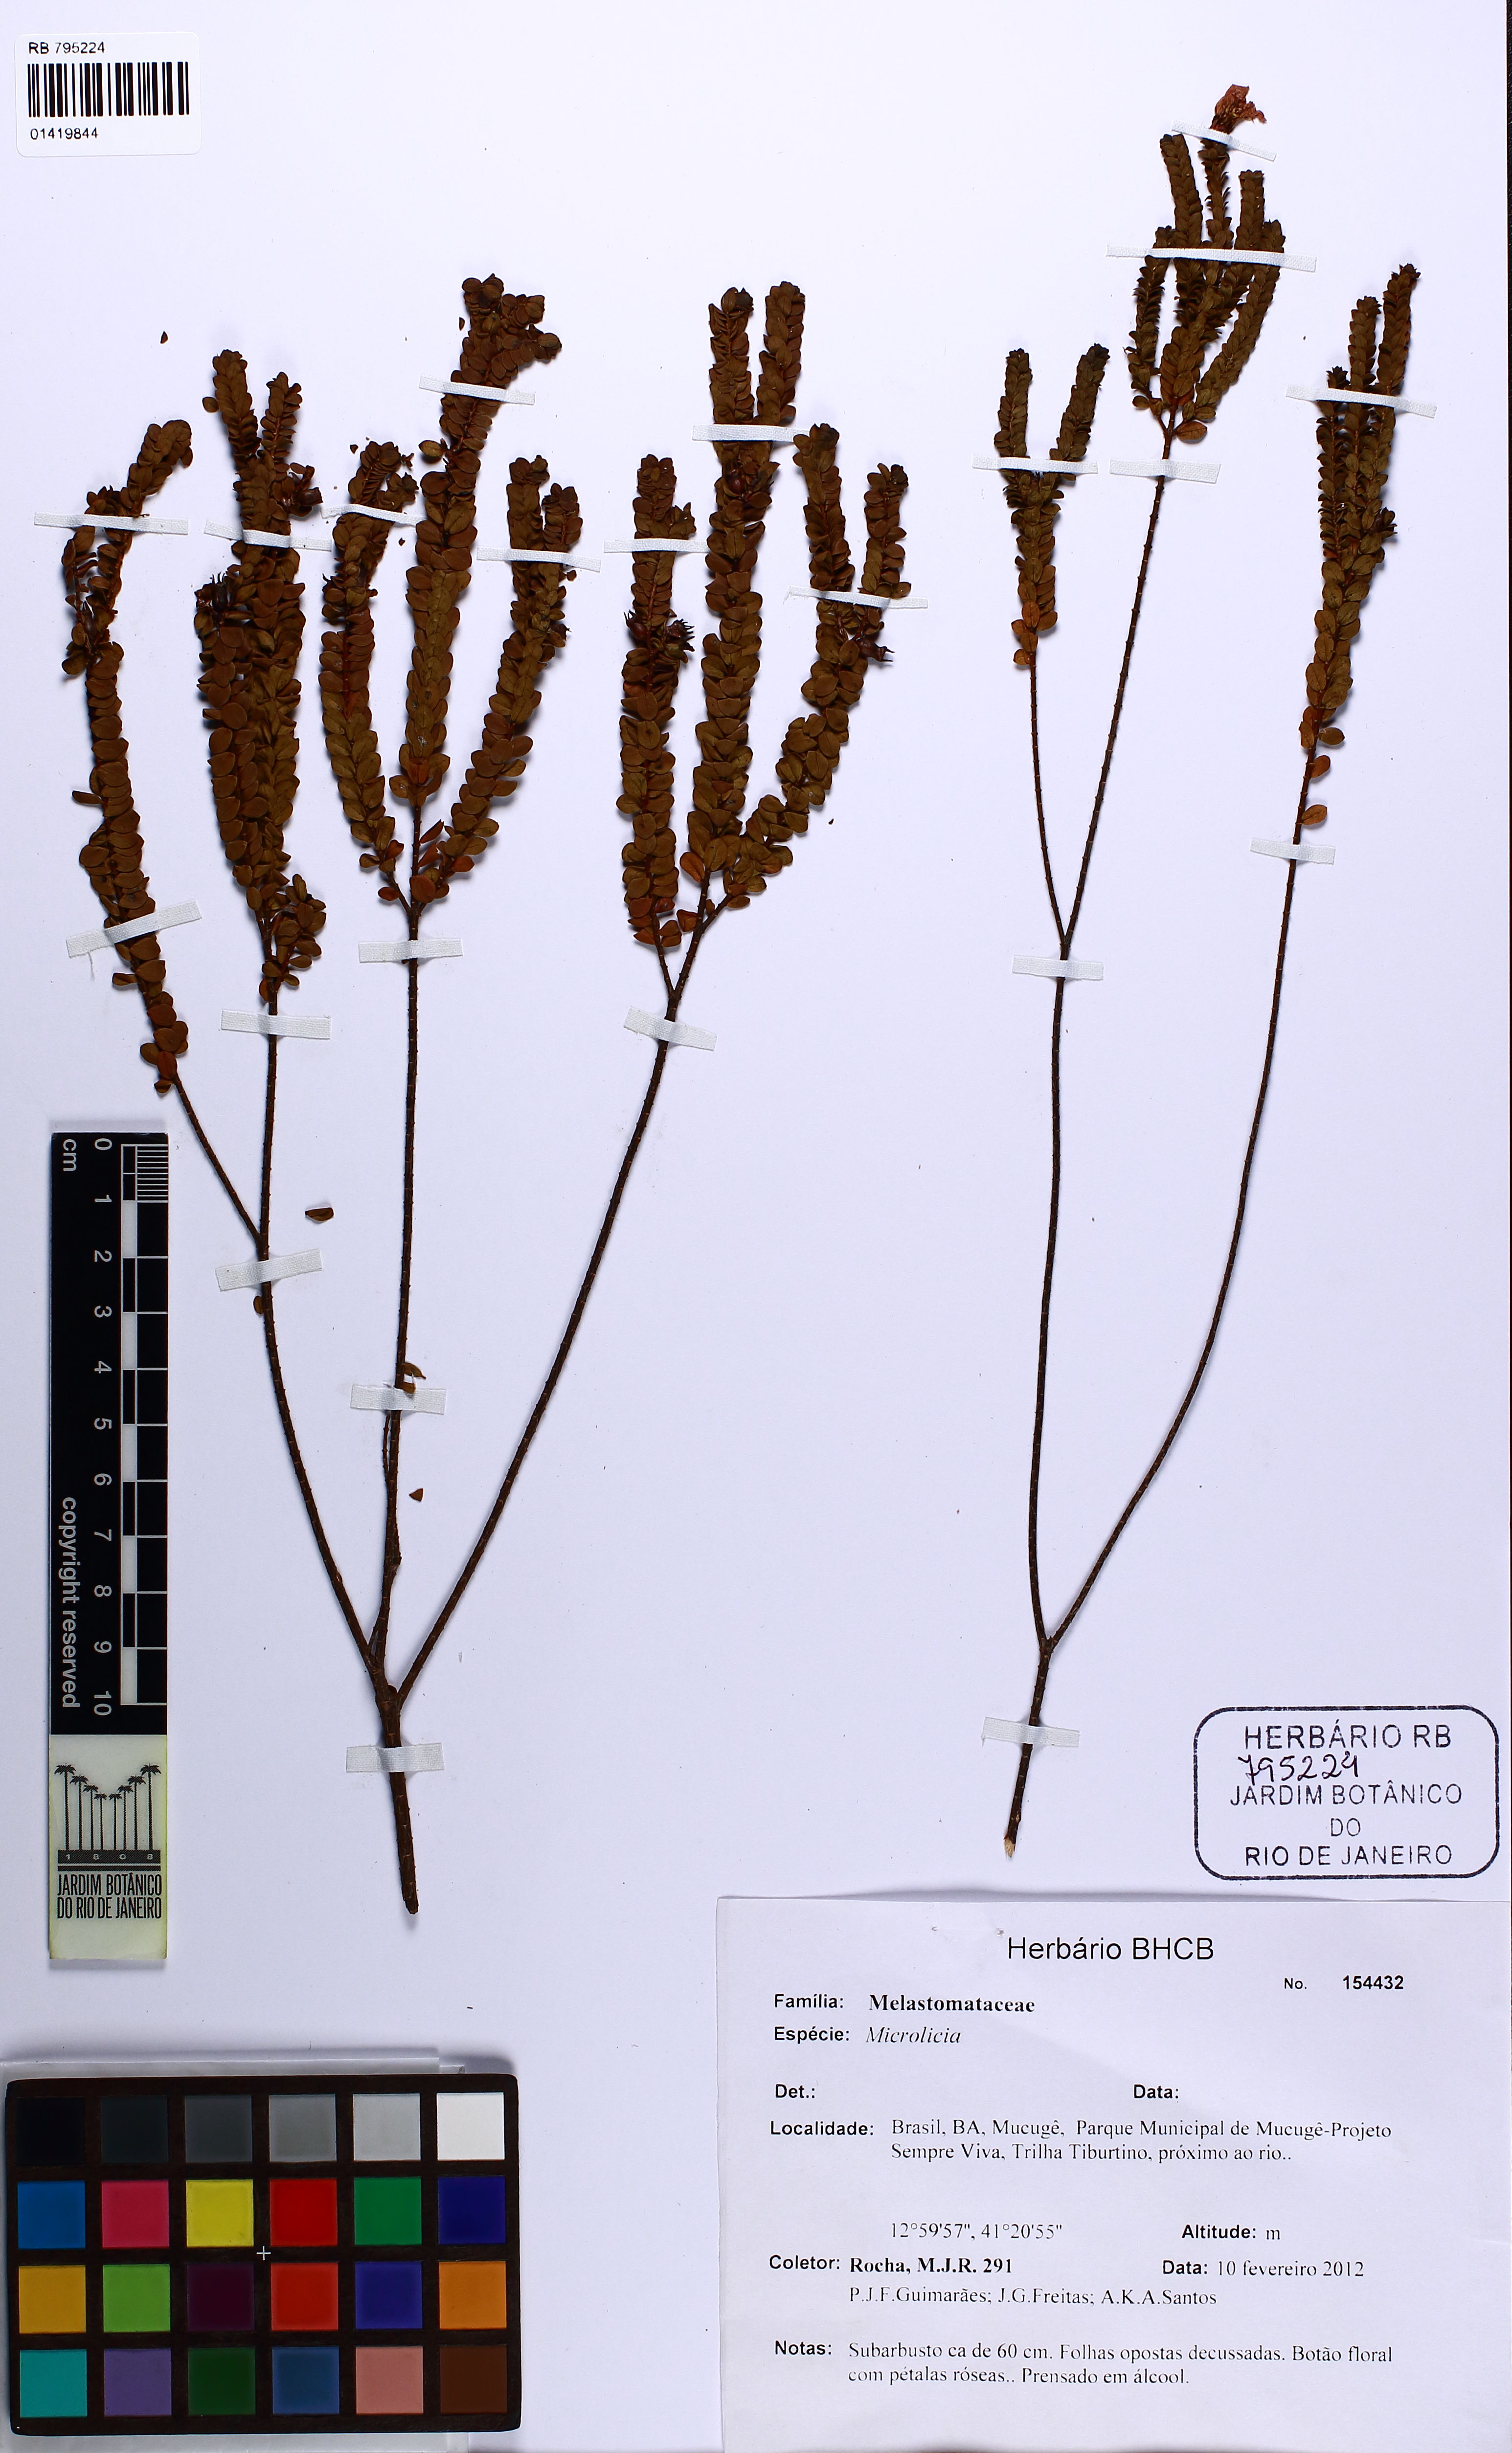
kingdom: Plantae
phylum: Tracheophyta
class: Magnoliopsida
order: Myrtales
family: Melastomataceae
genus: Microlicia
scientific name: Microlicia
